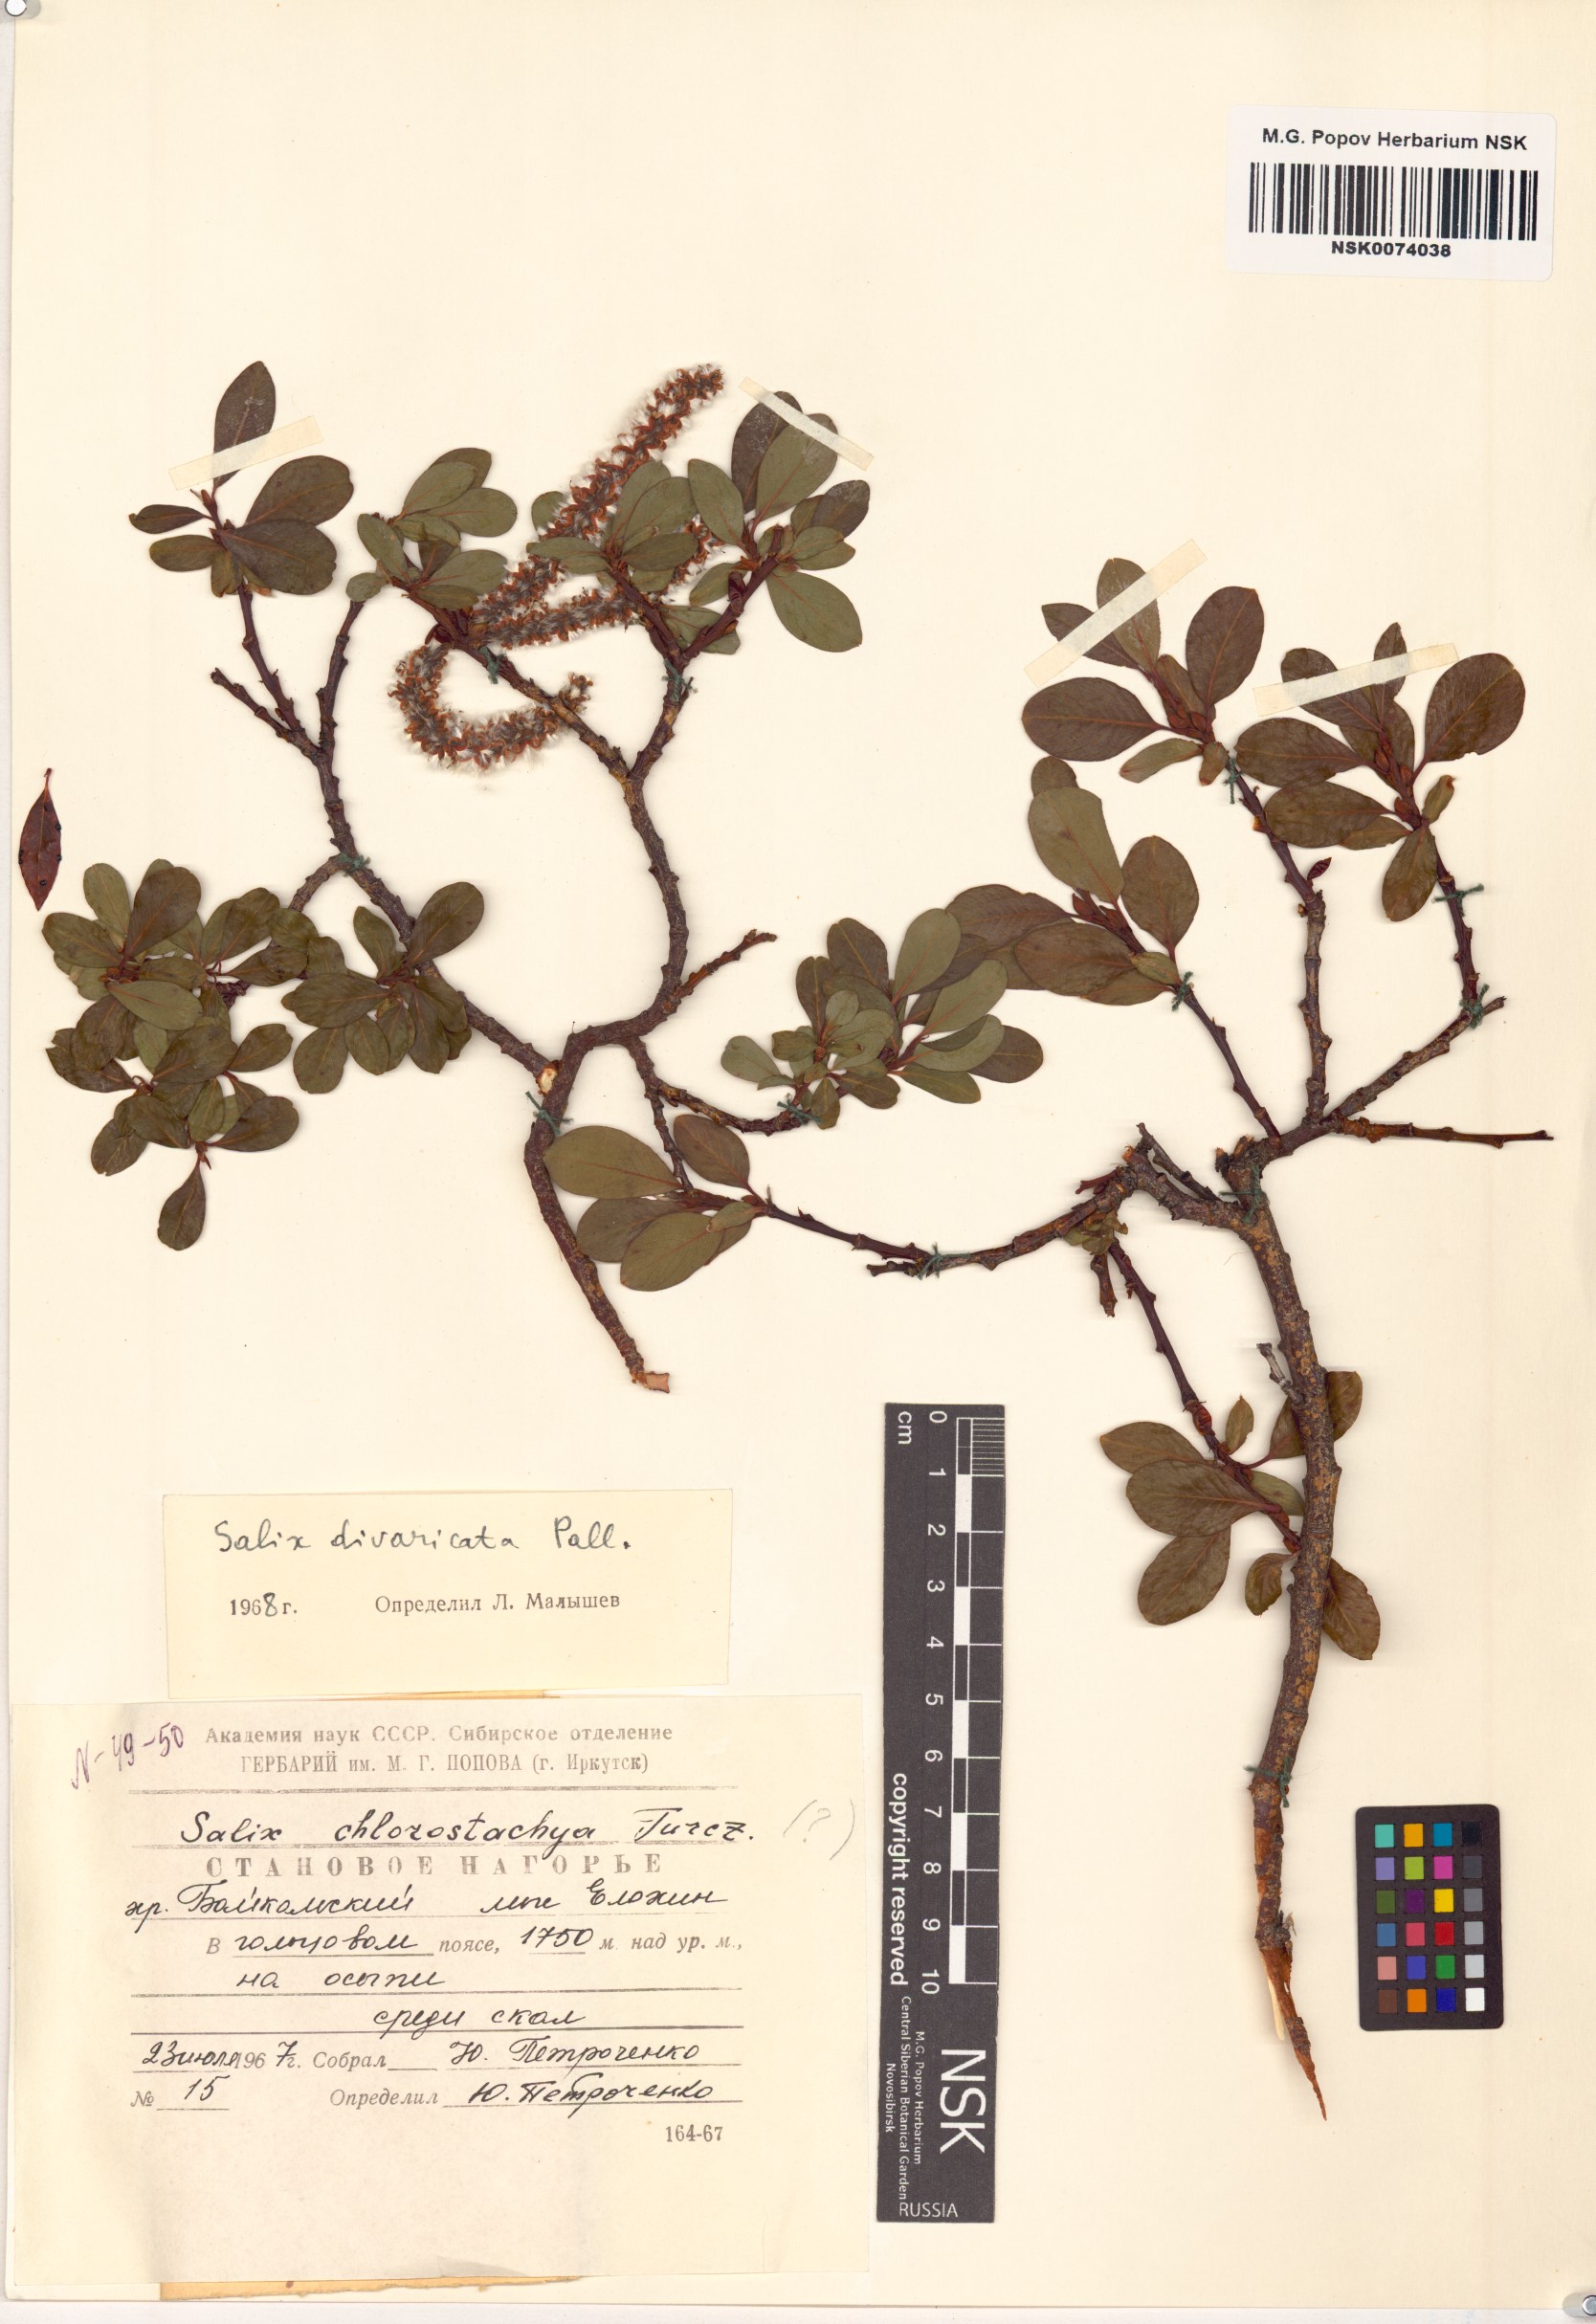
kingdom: Plantae
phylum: Tracheophyta
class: Magnoliopsida
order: Malpighiales
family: Salicaceae
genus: Salix
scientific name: Salix divaricata
